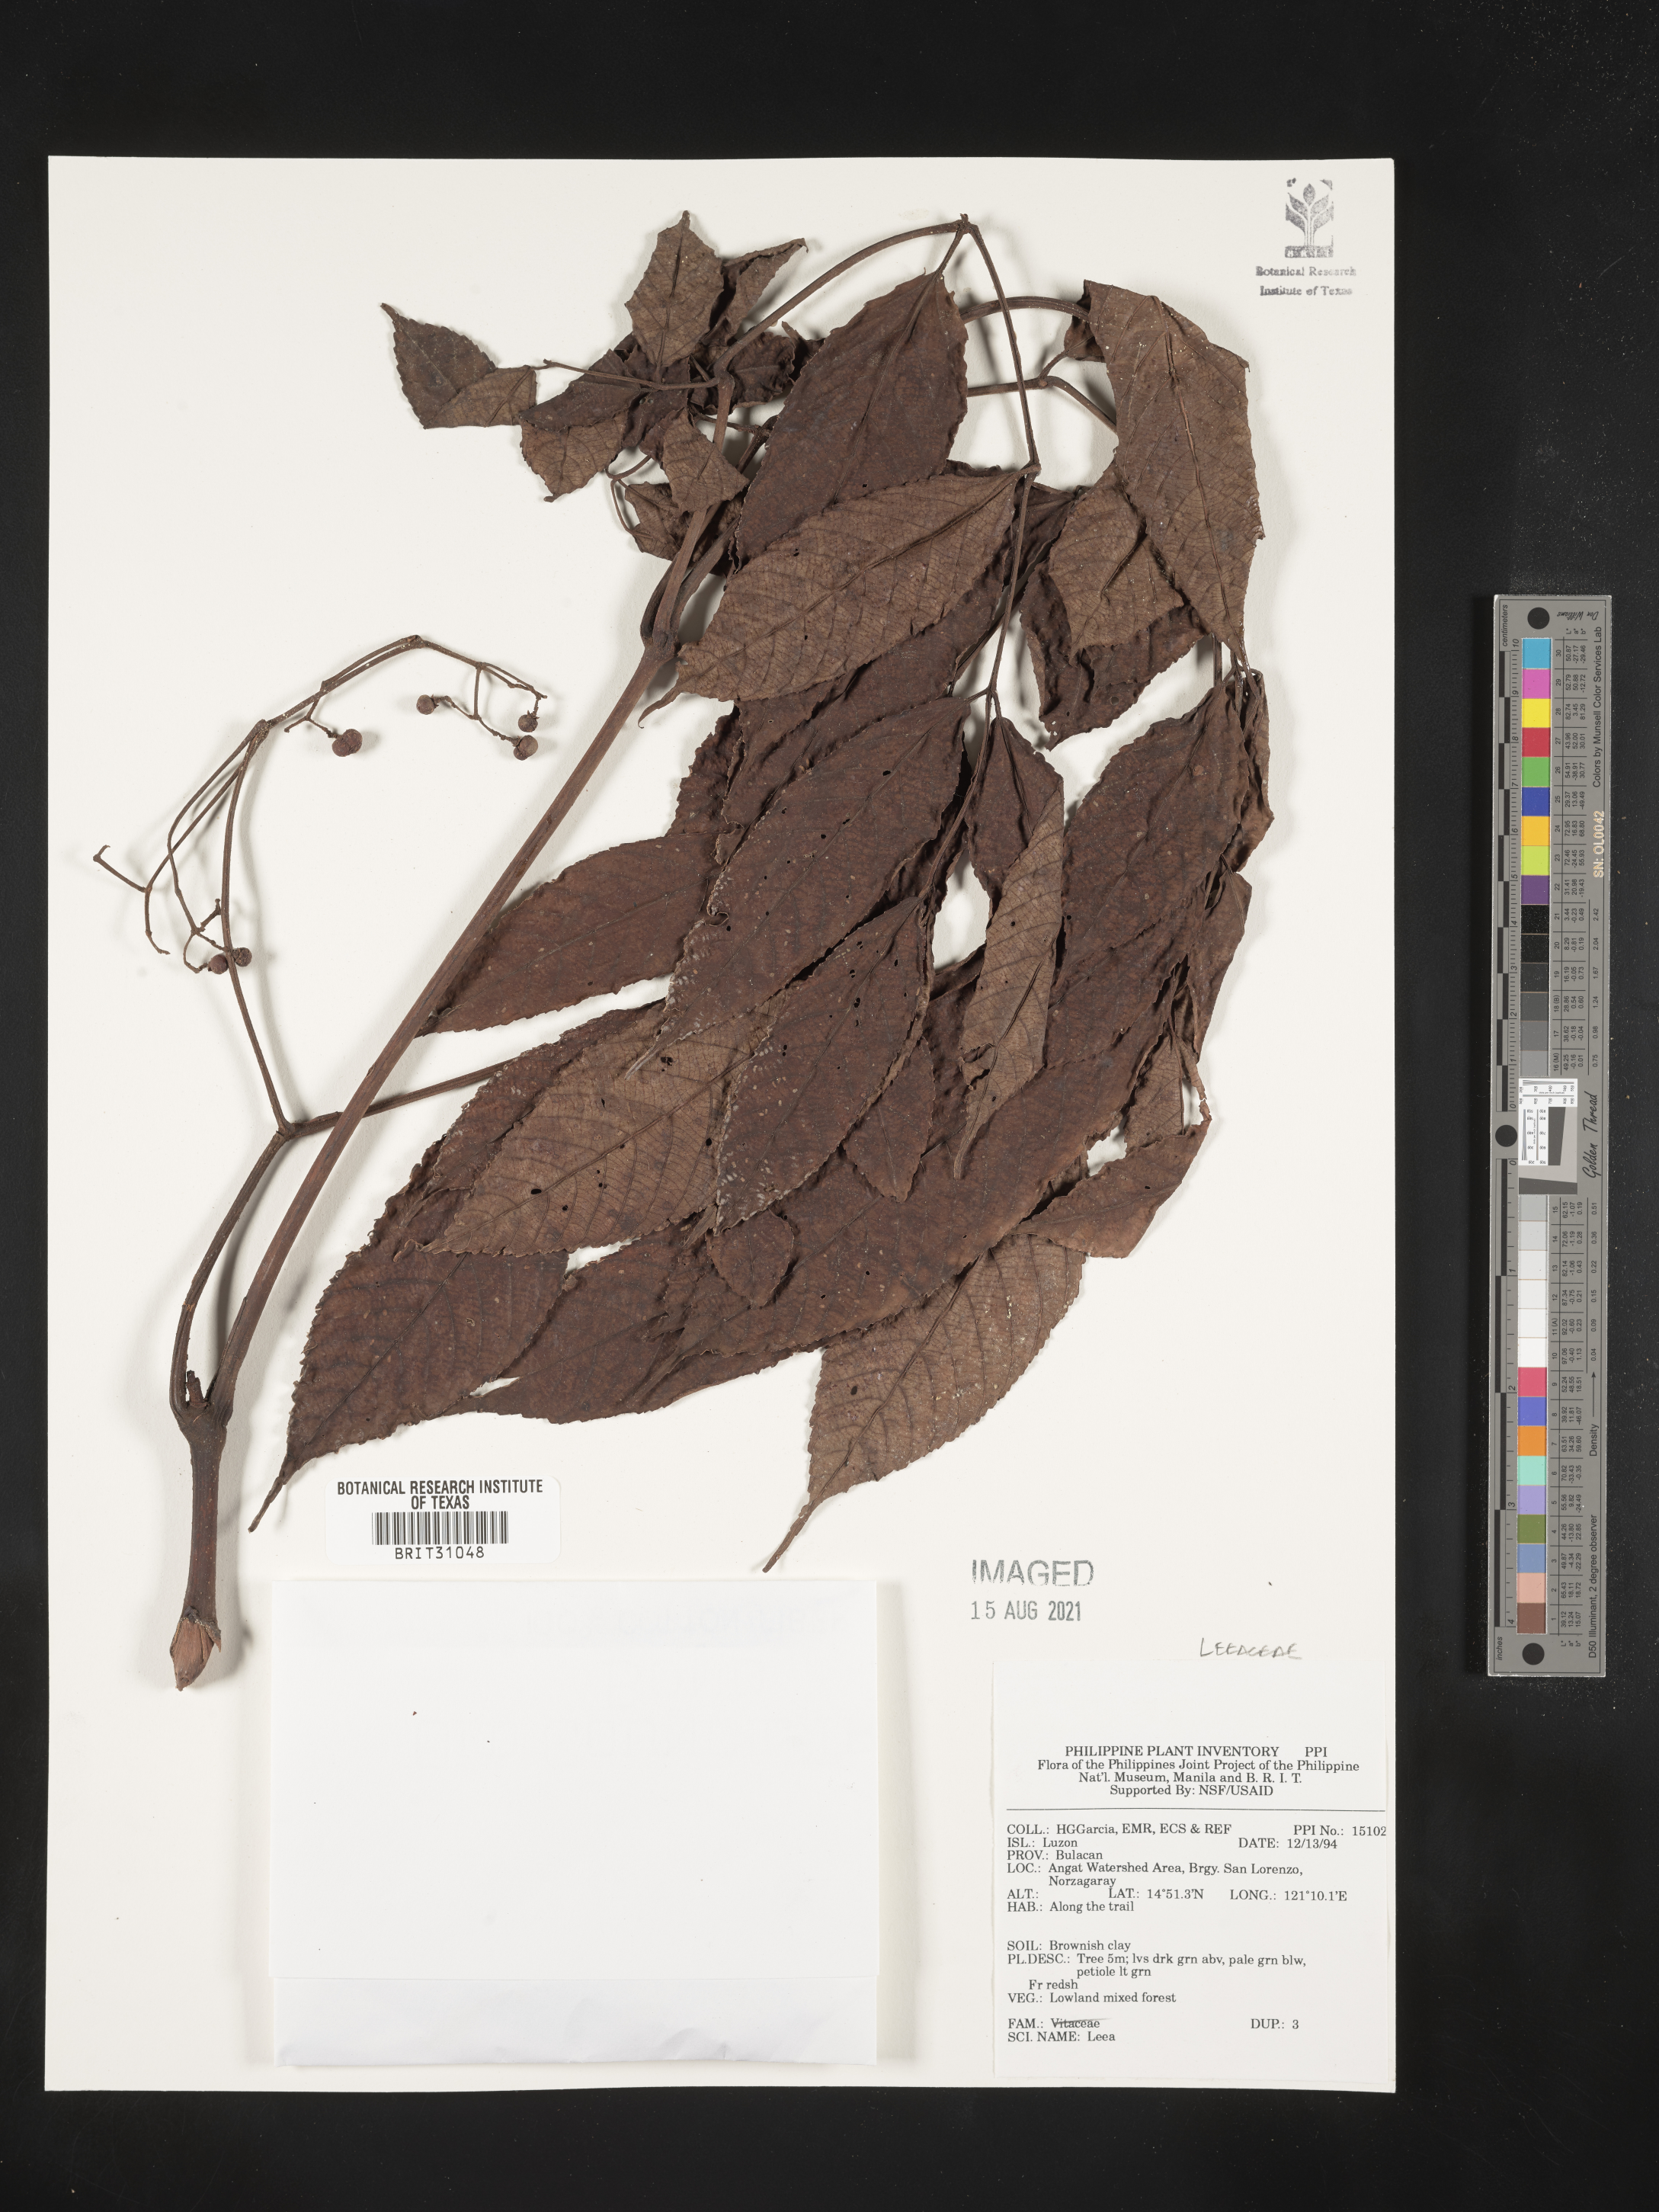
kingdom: Plantae
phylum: Tracheophyta
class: Magnoliopsida
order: Vitales
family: Vitaceae
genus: Leea
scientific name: Leea
